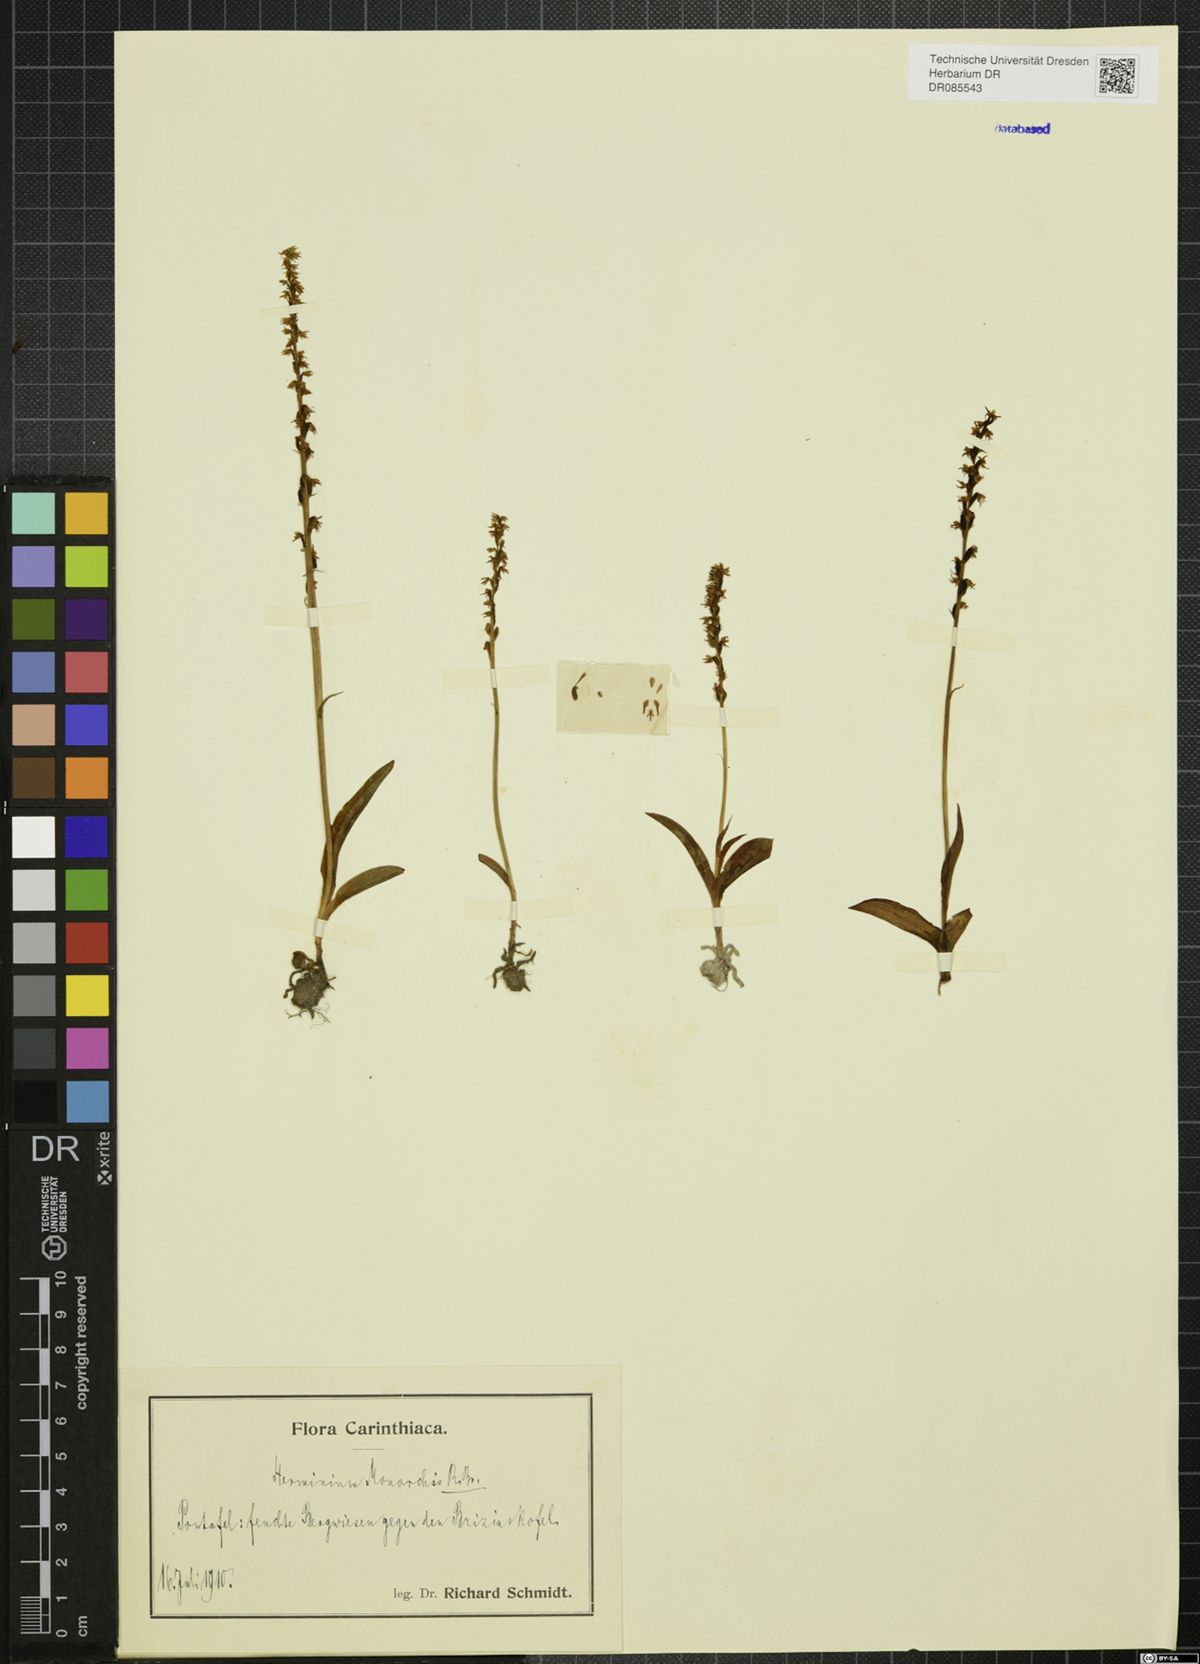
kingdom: Plantae
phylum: Tracheophyta
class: Liliopsida
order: Asparagales
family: Orchidaceae
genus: Herminium
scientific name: Herminium monorchis
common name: Musk orchid
